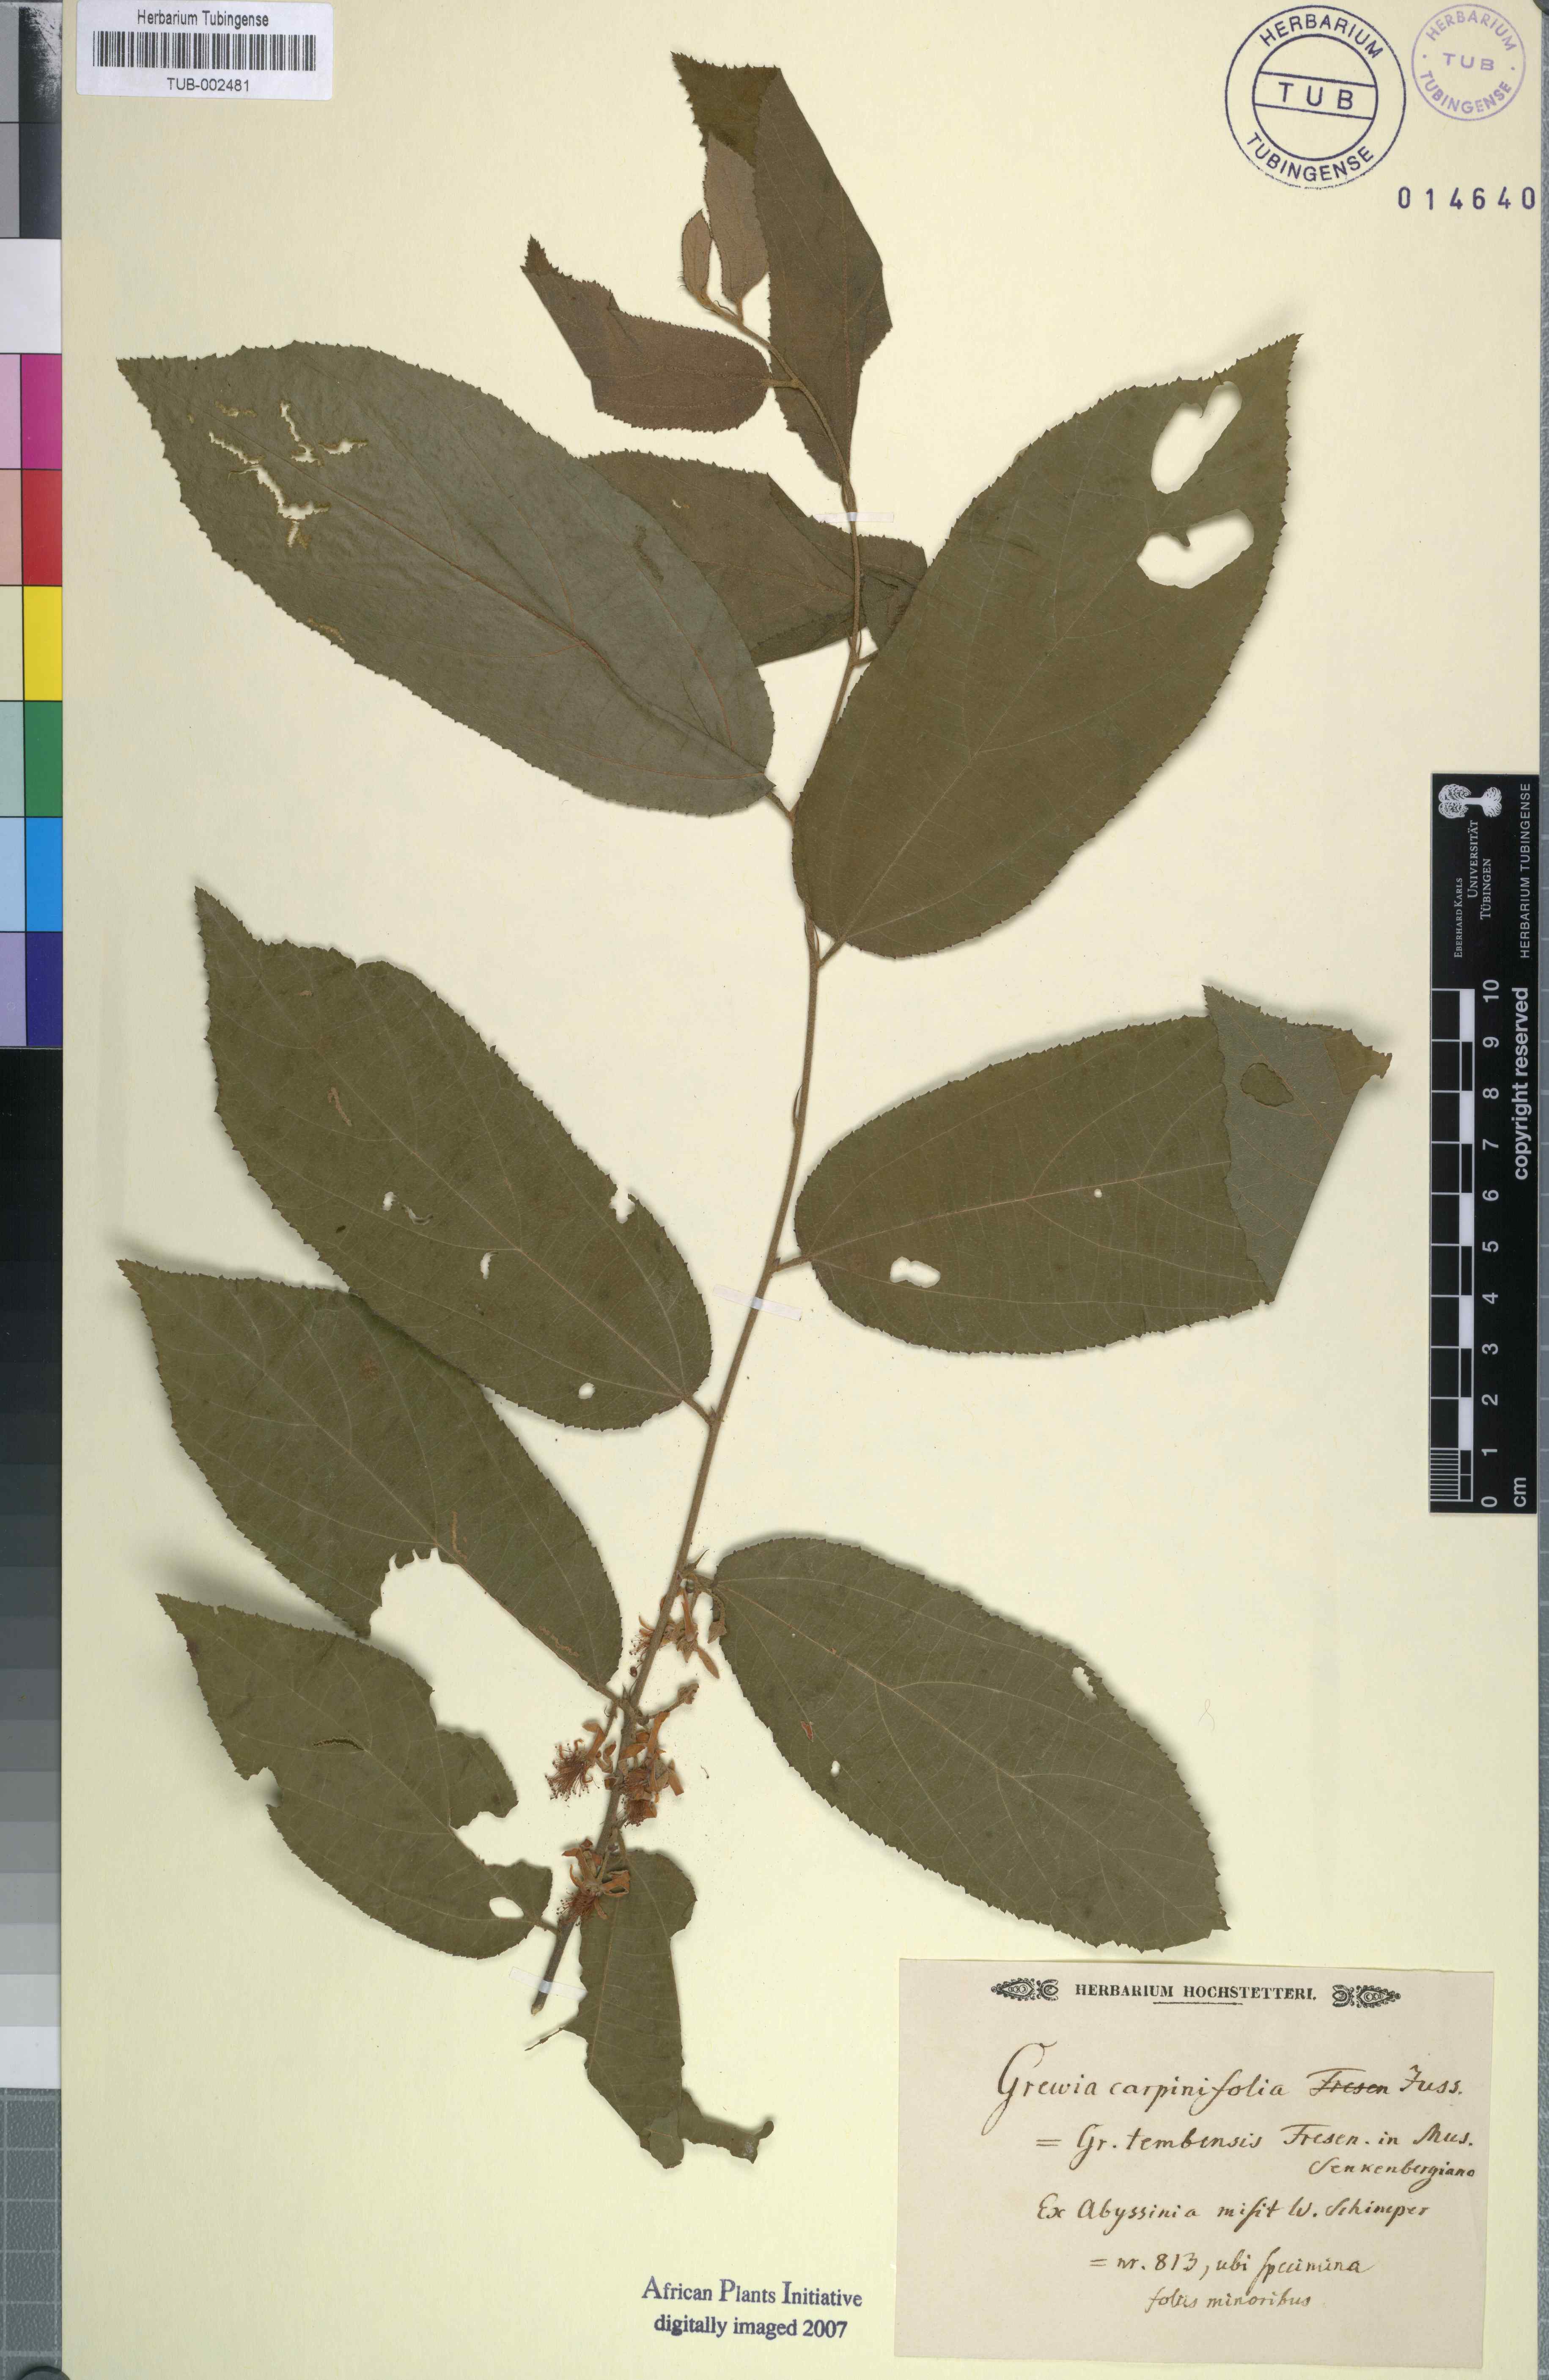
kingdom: Plantae
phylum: Tracheophyta
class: Magnoliopsida
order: Malvales
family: Malvaceae
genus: Grewia
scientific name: Grewia carpinifolia
